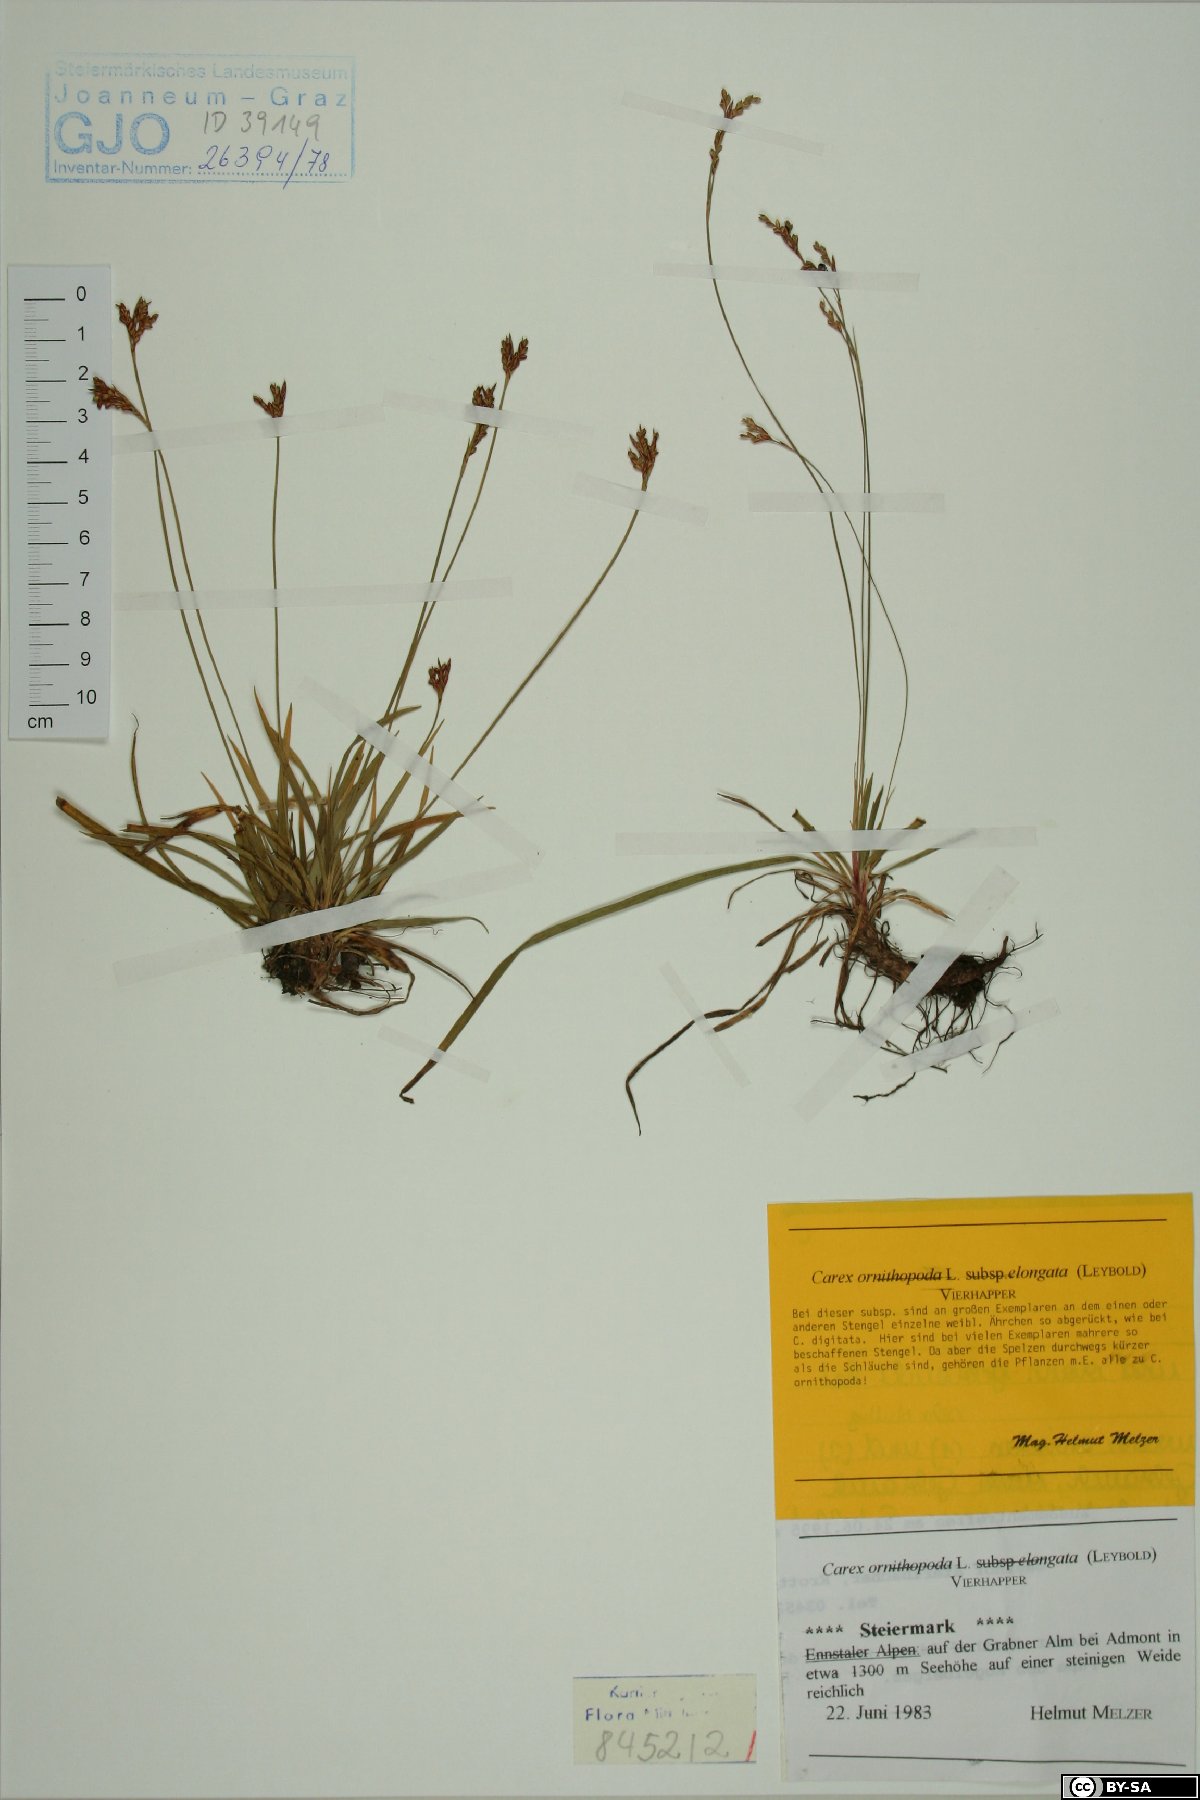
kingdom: Plantae
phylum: Tracheophyta
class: Liliopsida
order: Poales
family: Cyperaceae
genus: Carex
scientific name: Carex ornithopoda
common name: Bird's-foot sedge
